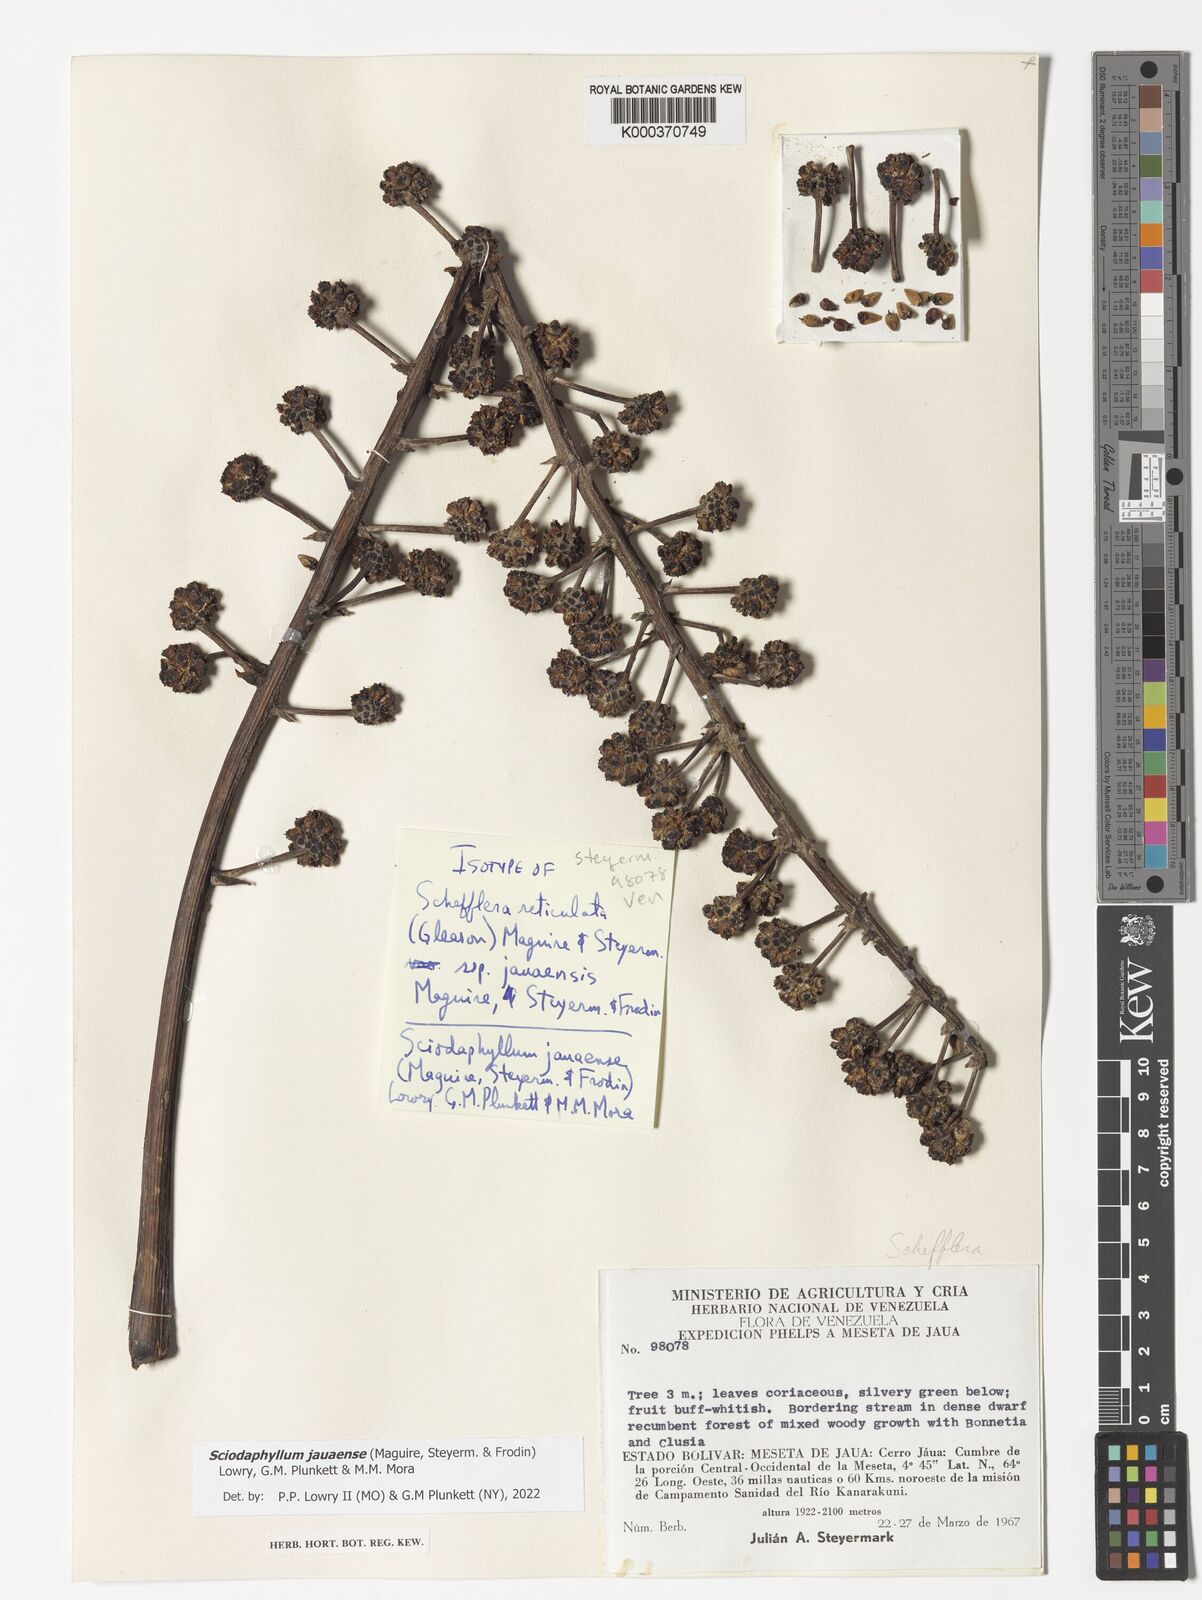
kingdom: Plantae
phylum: Tracheophyta
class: Magnoliopsida
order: Apiales
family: Araliaceae
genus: Sciodaphyllum
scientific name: Sciodaphyllum
